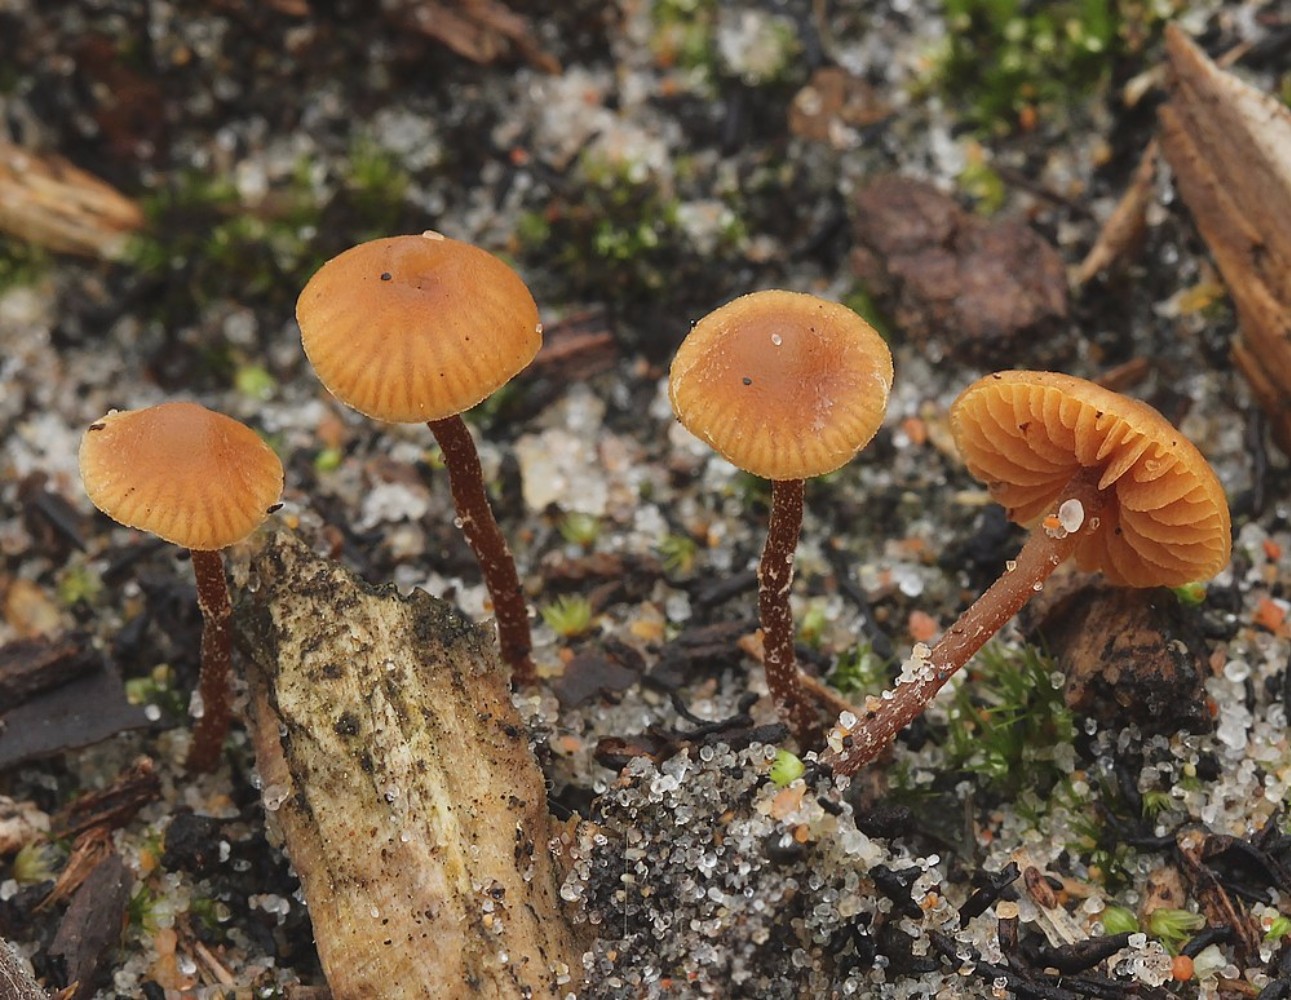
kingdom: Fungi
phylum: Basidiomycota
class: Agaricomycetes
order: Agaricales
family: Hymenogastraceae
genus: Galerina
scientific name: Galerina
